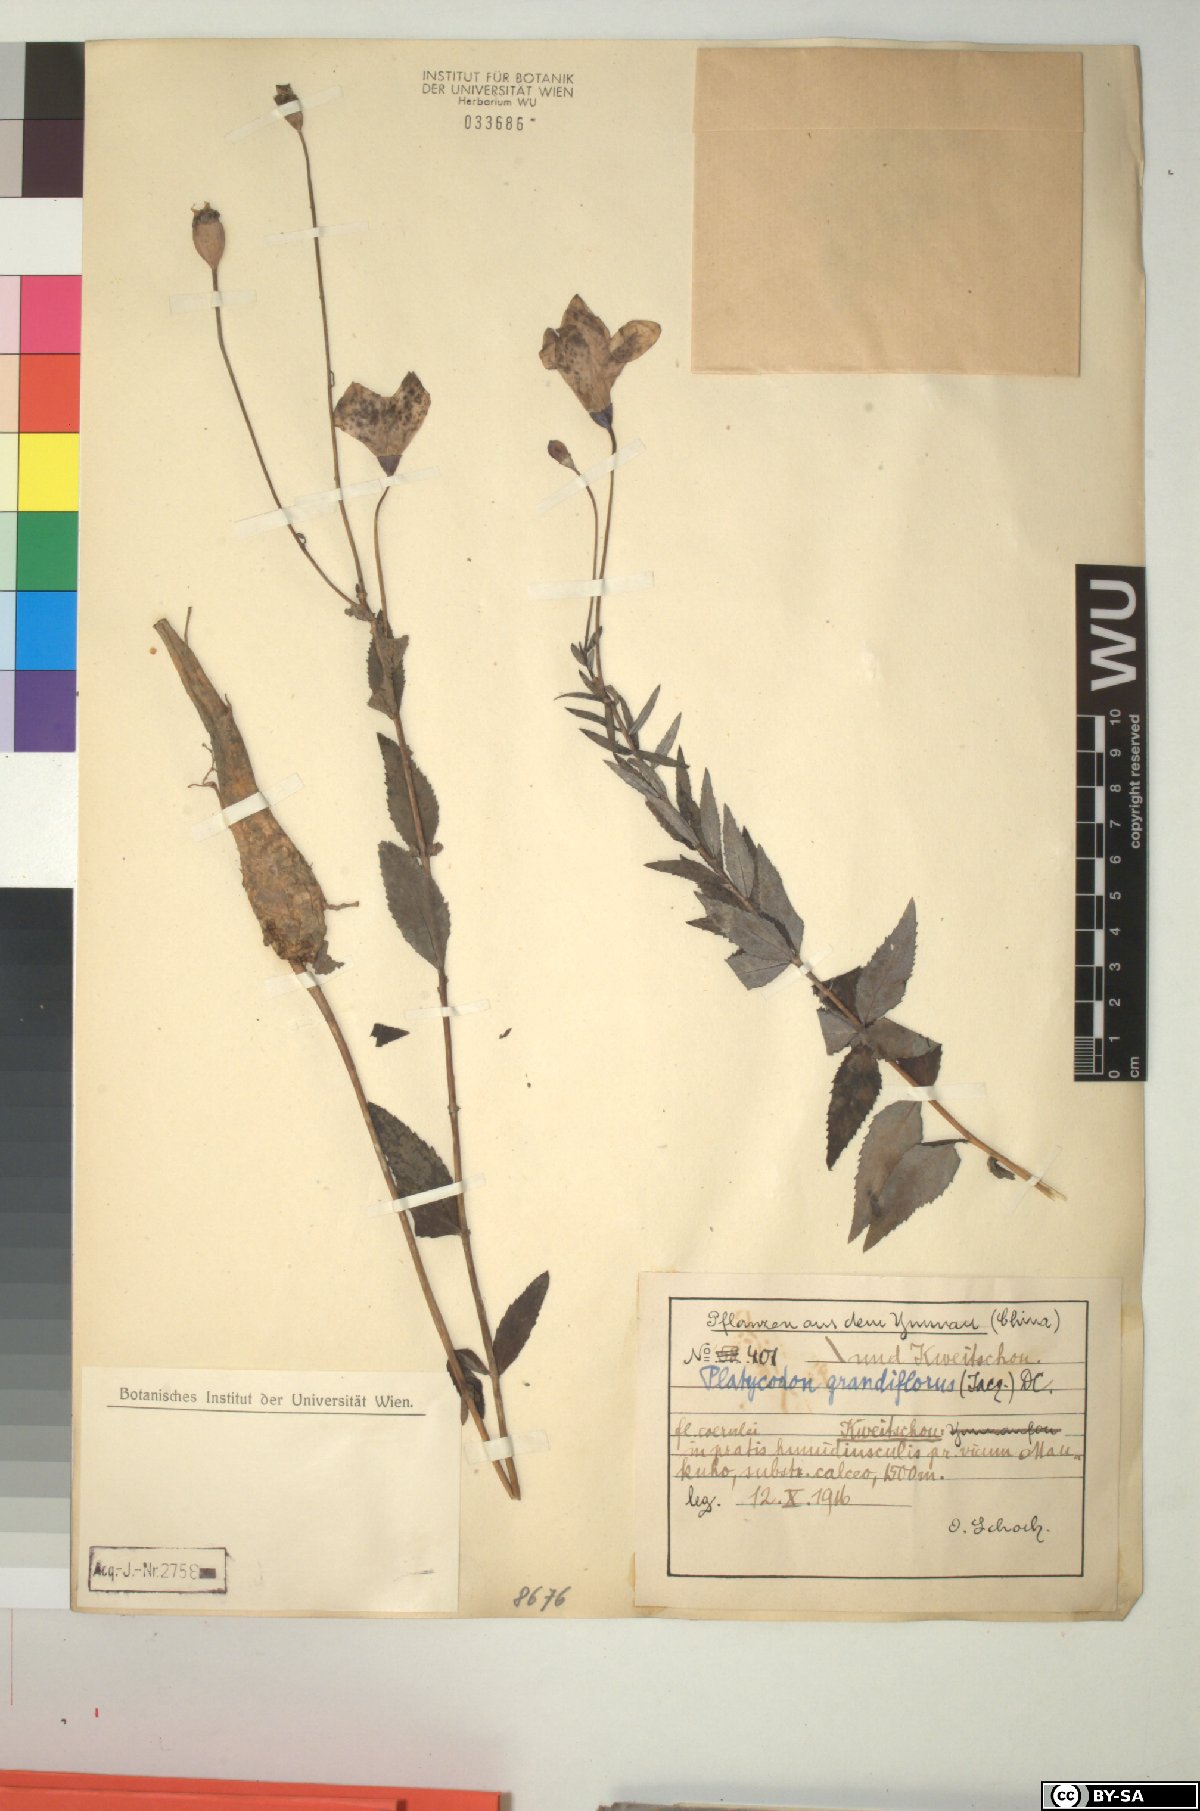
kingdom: Plantae
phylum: Tracheophyta
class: Magnoliopsida
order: Asterales
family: Campanulaceae
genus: Platycodon
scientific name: Platycodon grandiflorus
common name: Balloon-flower
